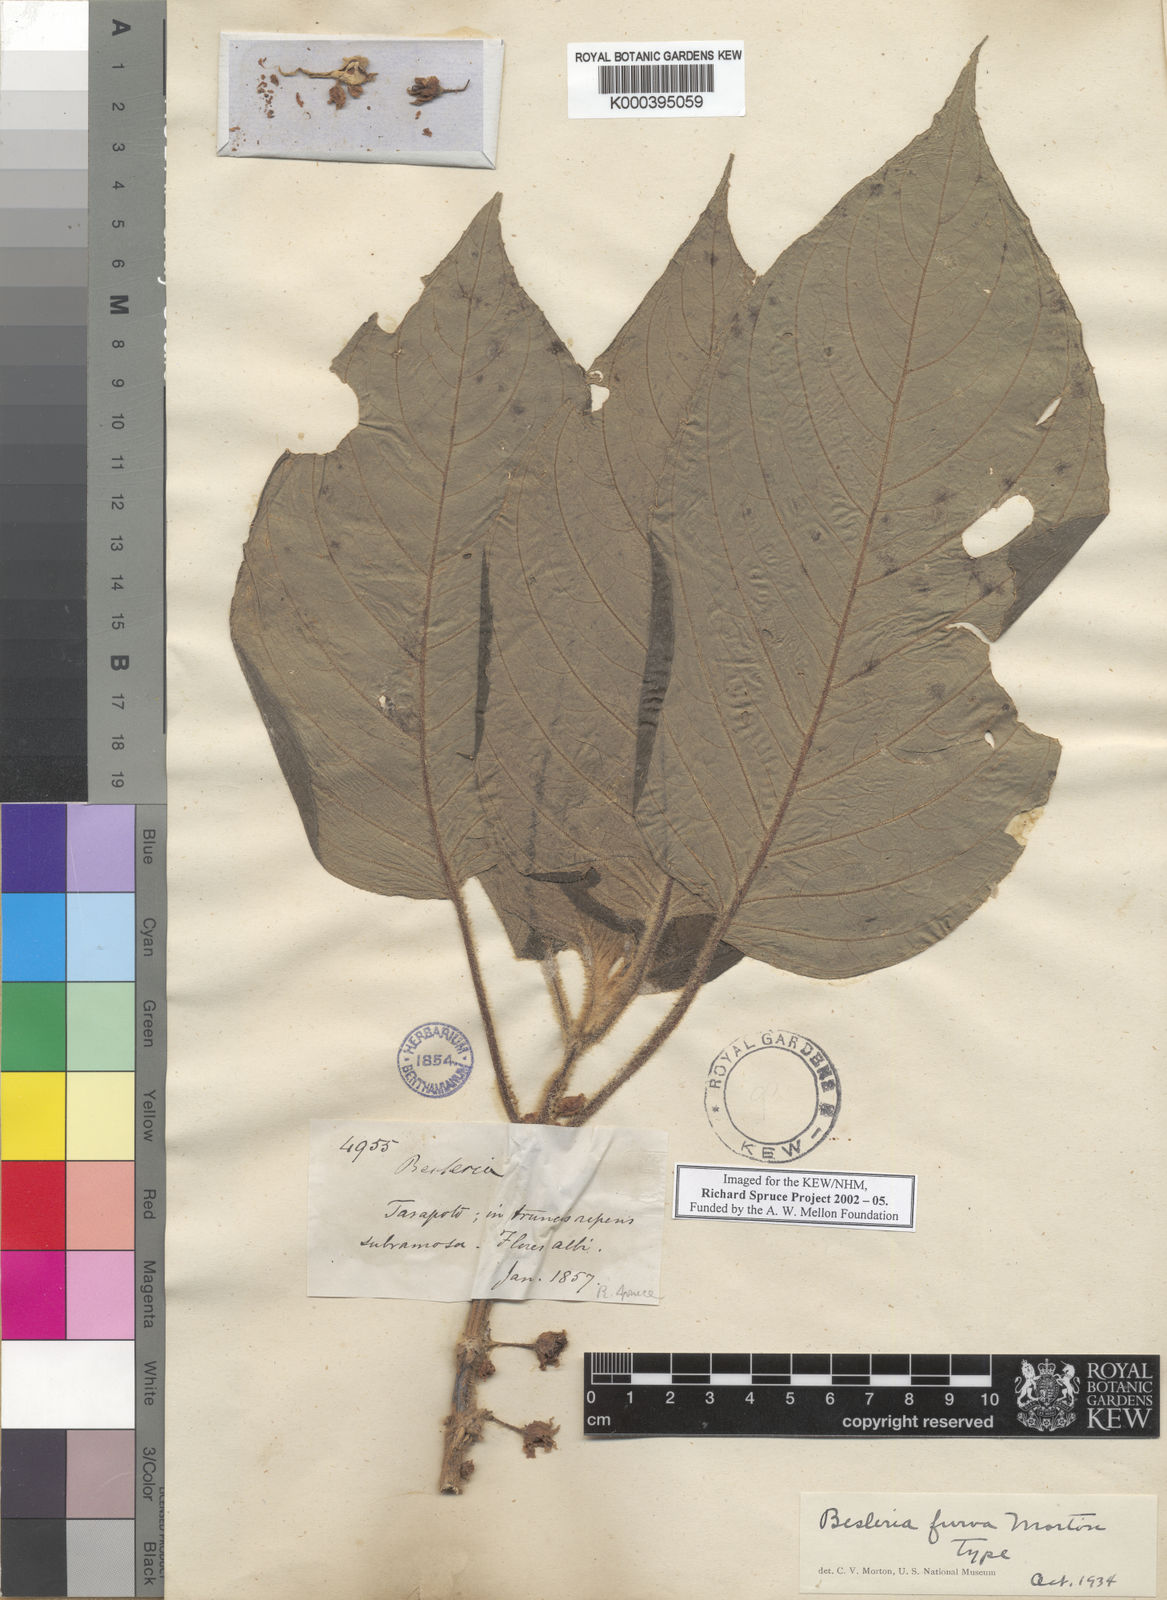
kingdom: Plantae
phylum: Tracheophyta
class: Magnoliopsida
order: Lamiales
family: Gesneriaceae
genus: Besleria
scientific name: Besleria furva
